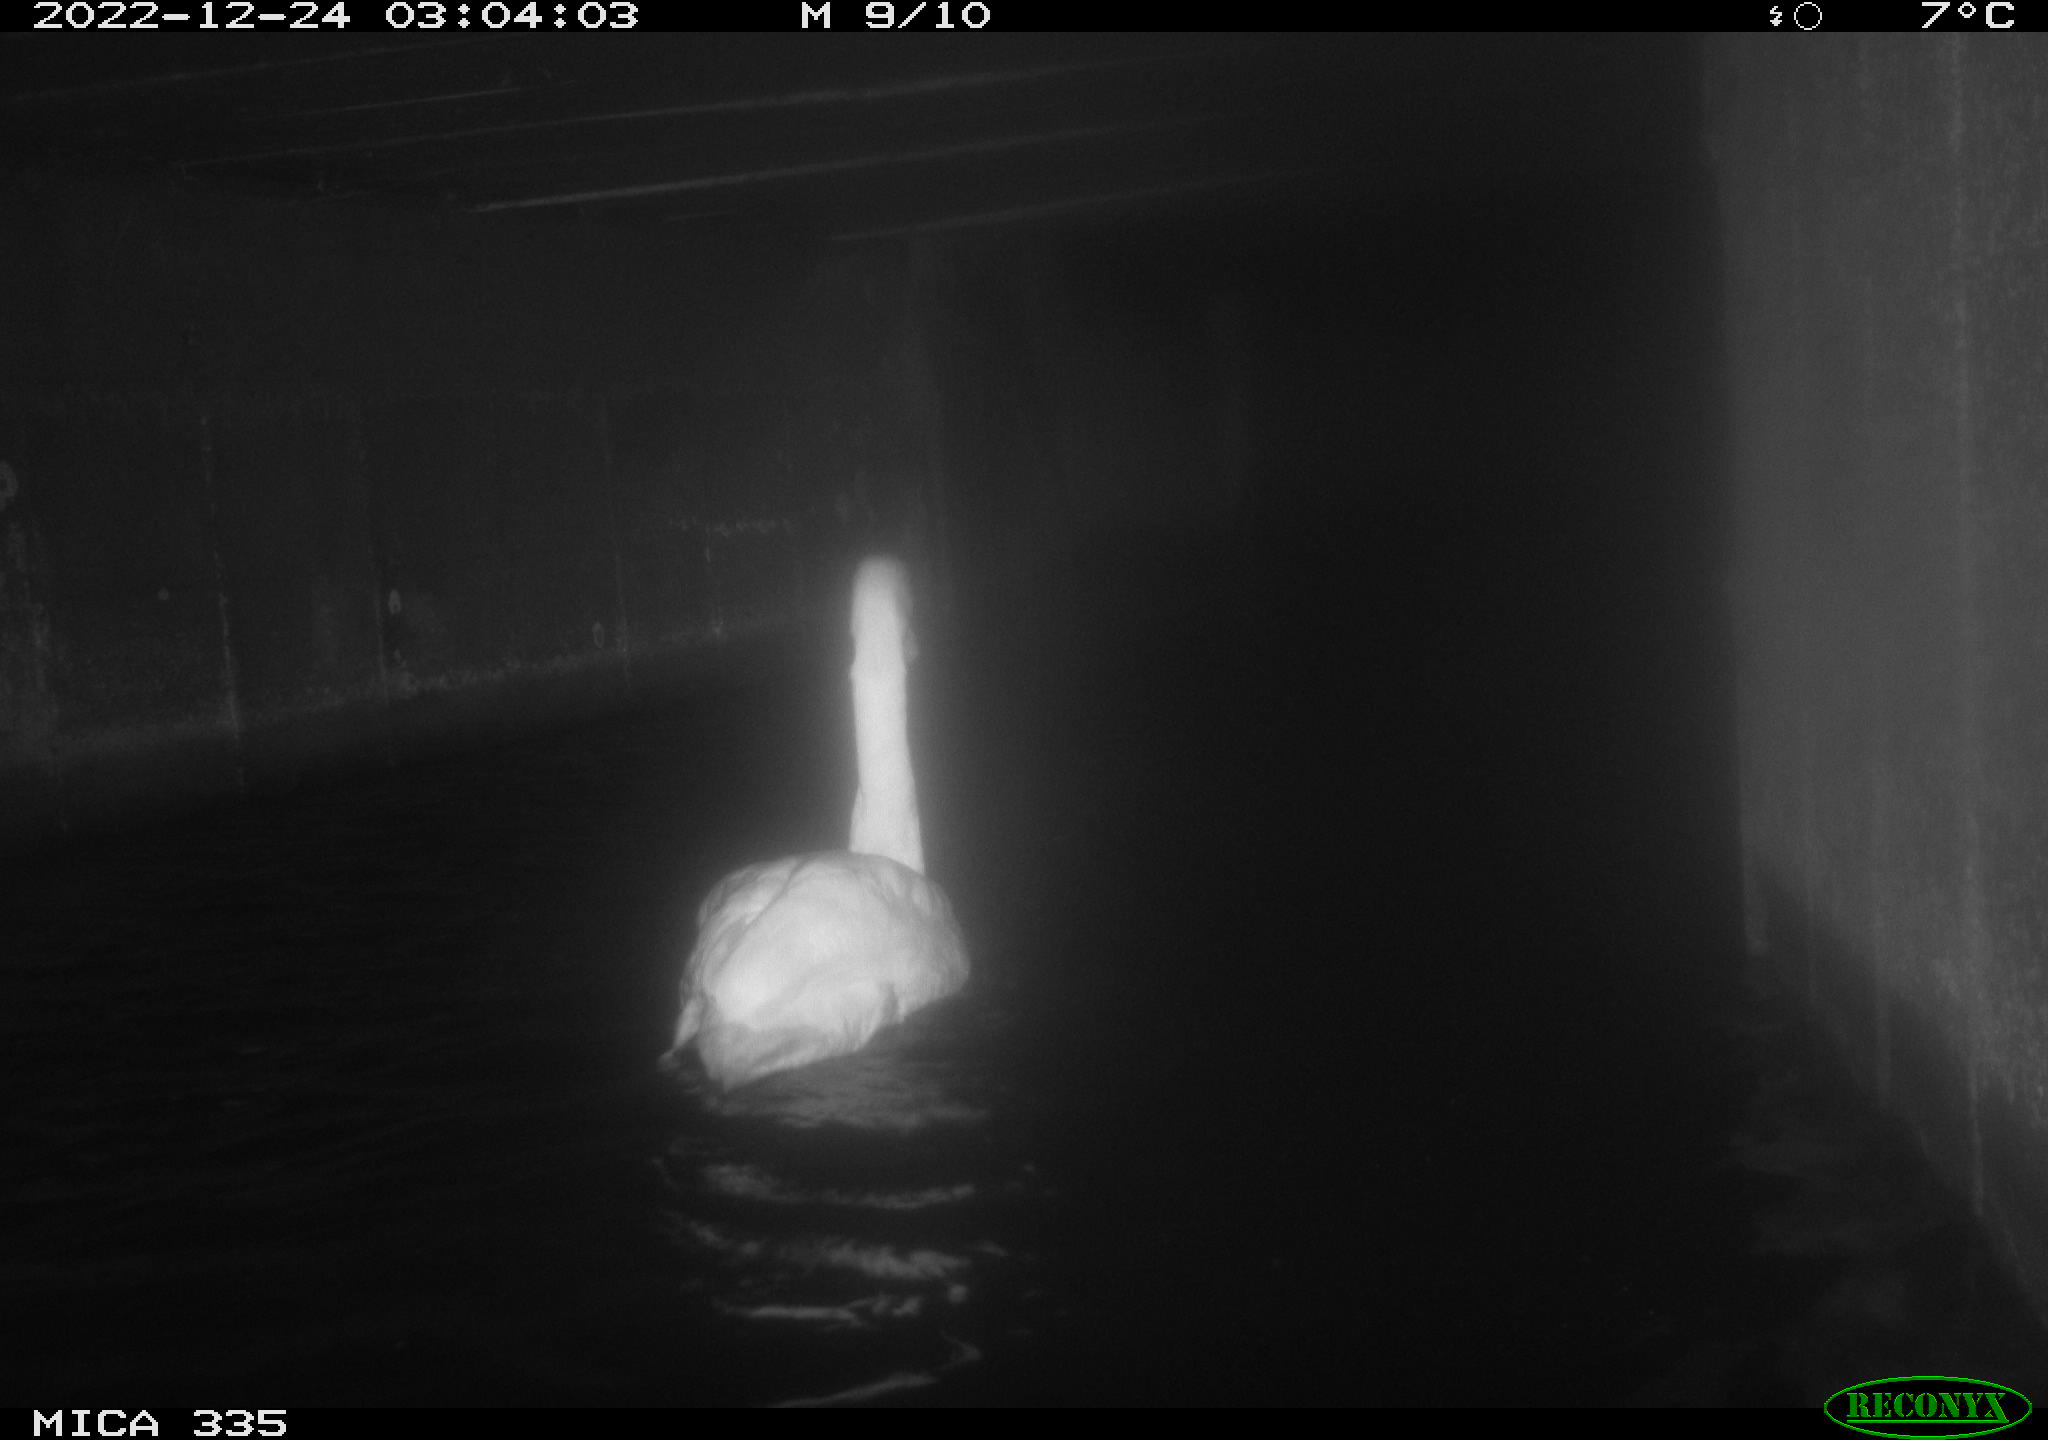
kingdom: Animalia
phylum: Chordata
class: Aves
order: Anseriformes
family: Anatidae
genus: Cygnus
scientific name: Cygnus olor
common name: Mute swan
